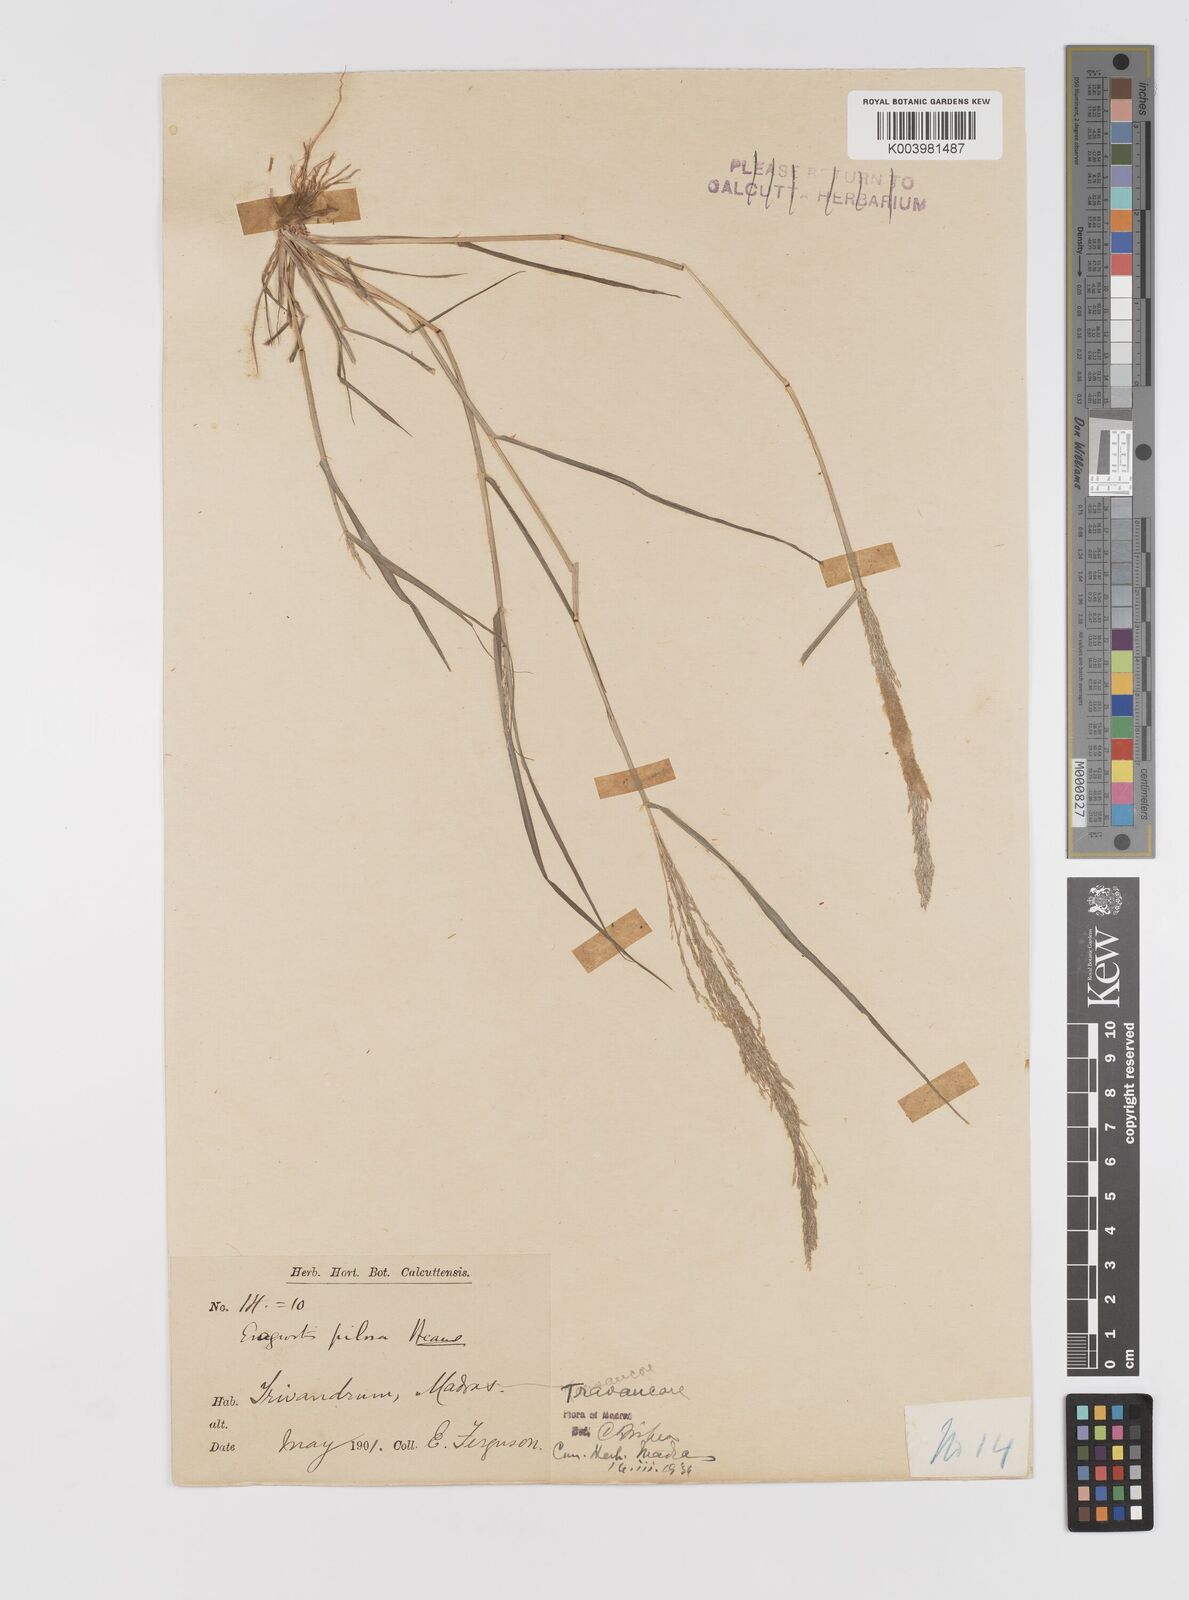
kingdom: Plantae
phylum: Tracheophyta
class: Liliopsida
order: Poales
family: Poaceae
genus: Eragrostis
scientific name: Eragrostis pilosa
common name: Indian lovegrass
